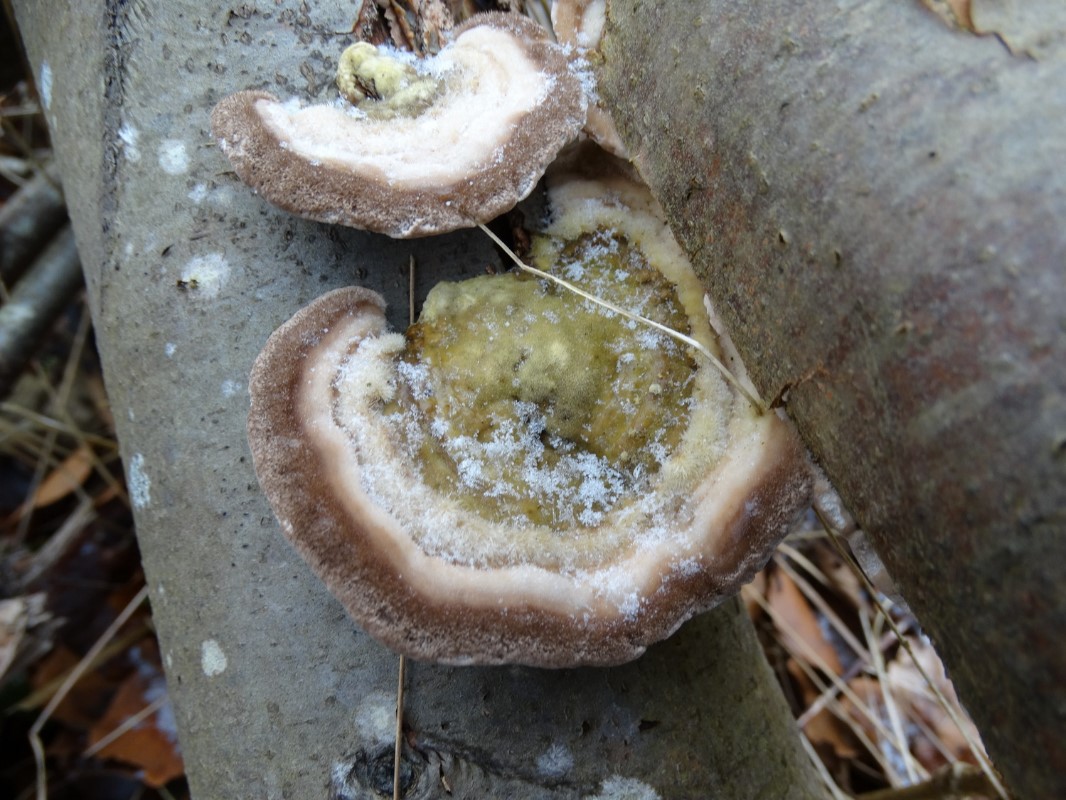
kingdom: Fungi
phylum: Basidiomycota
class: Agaricomycetes
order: Polyporales
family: Polyporaceae
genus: Trametes
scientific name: Trametes hirsuta
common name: håret læderporesvamp
